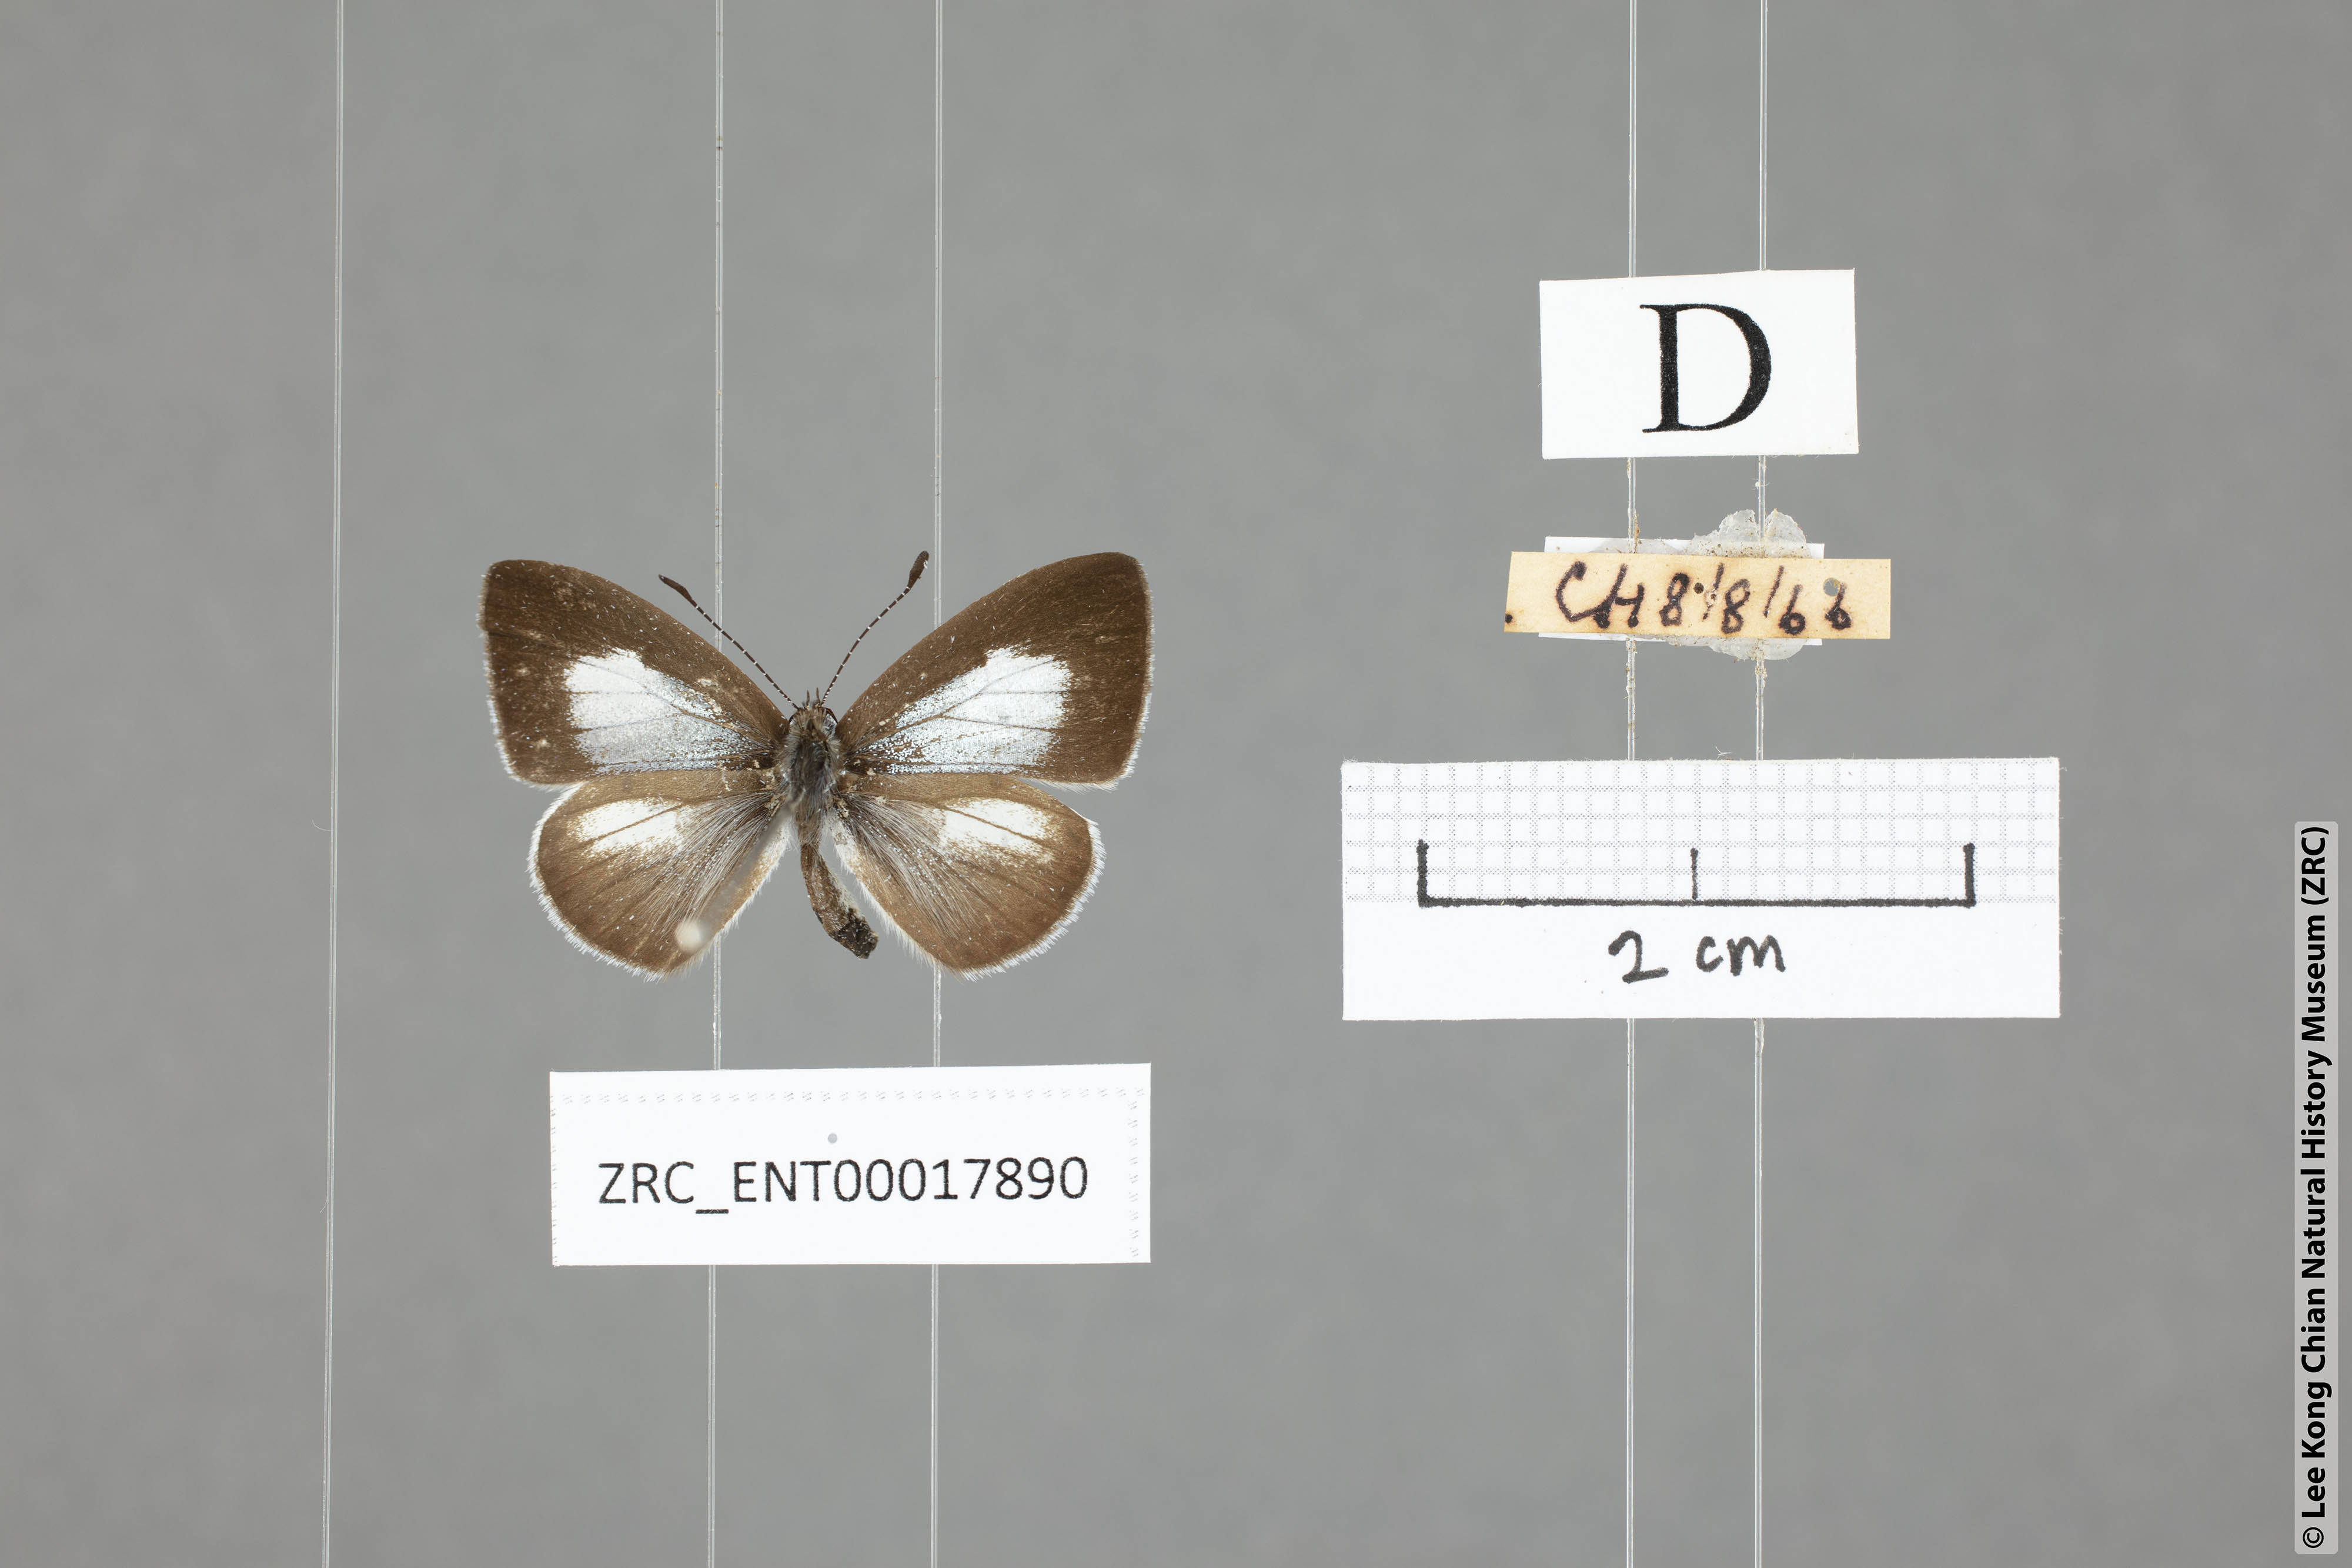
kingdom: Animalia
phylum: Arthropoda
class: Insecta
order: Lepidoptera
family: Lycaenidae
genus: Oreolyce
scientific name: Oreolyce
